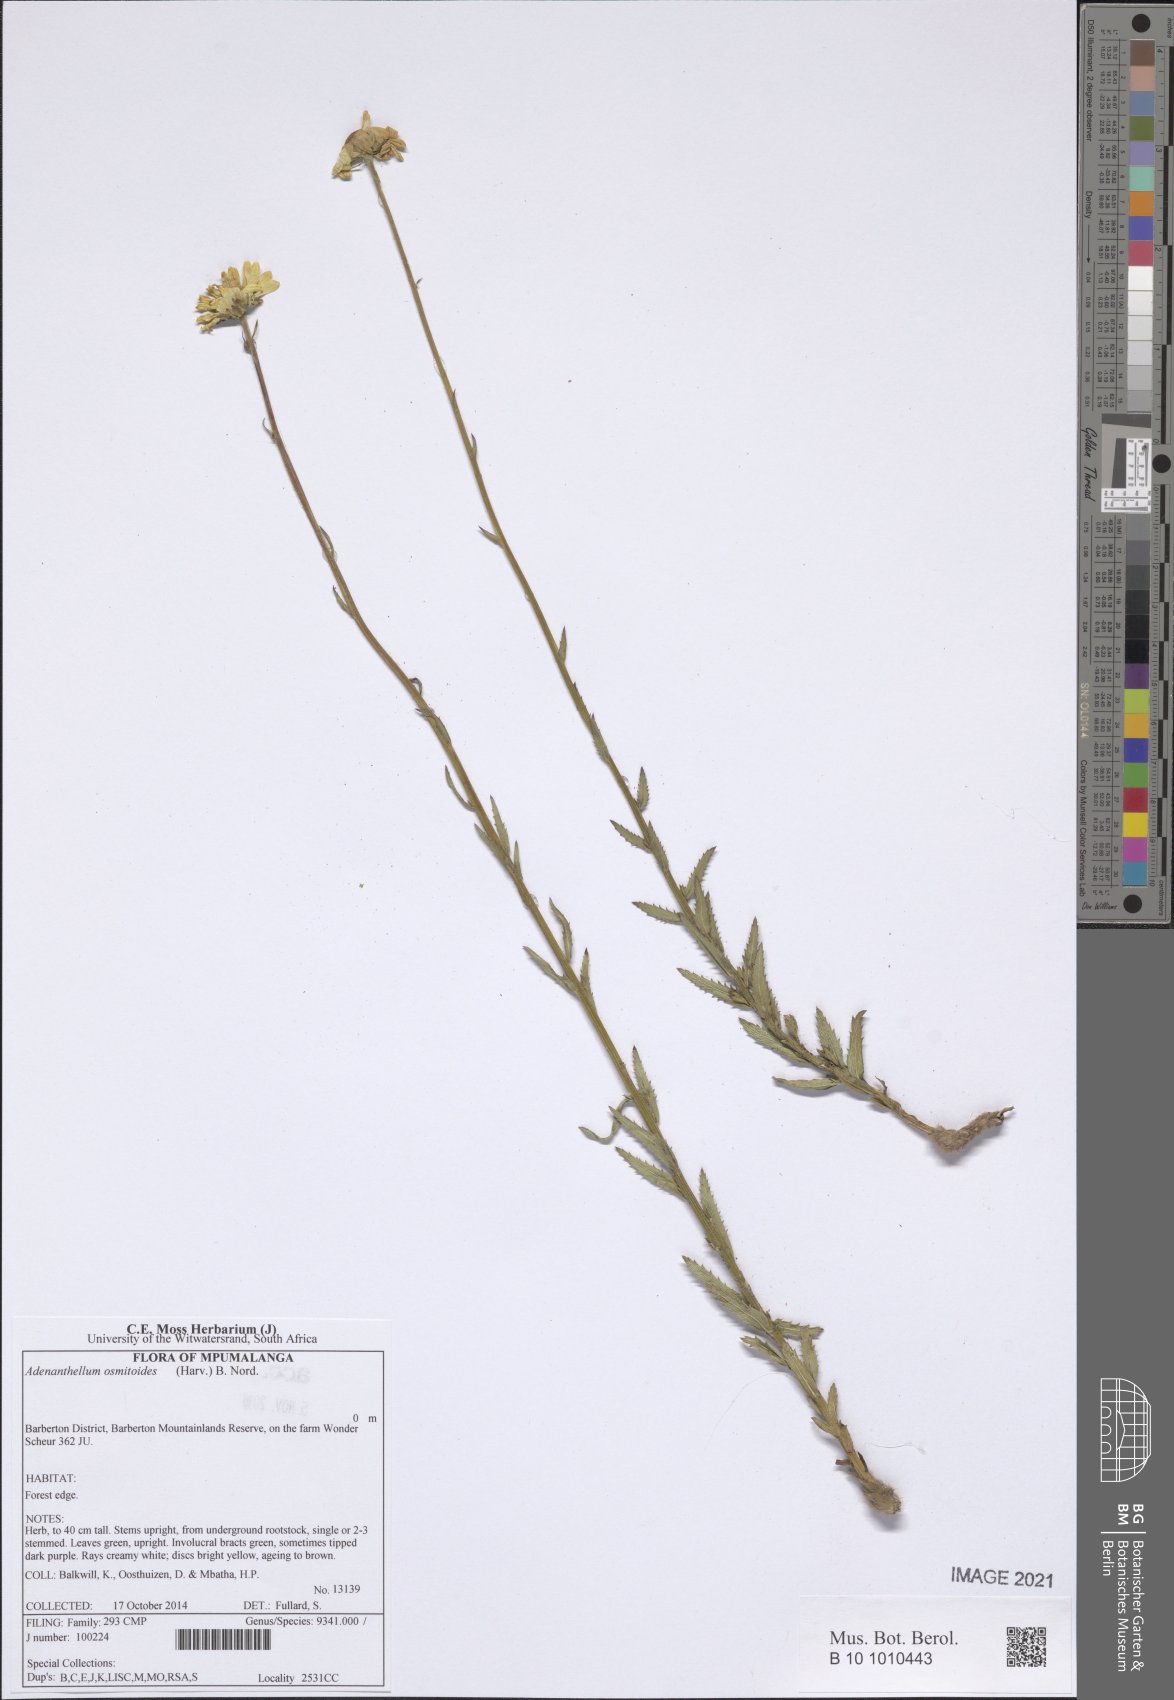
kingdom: Plantae
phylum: Tracheophyta
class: Magnoliopsida
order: Asterales
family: Asteraceae
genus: Adenanthellum
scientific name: Adenanthellum osmitoides
